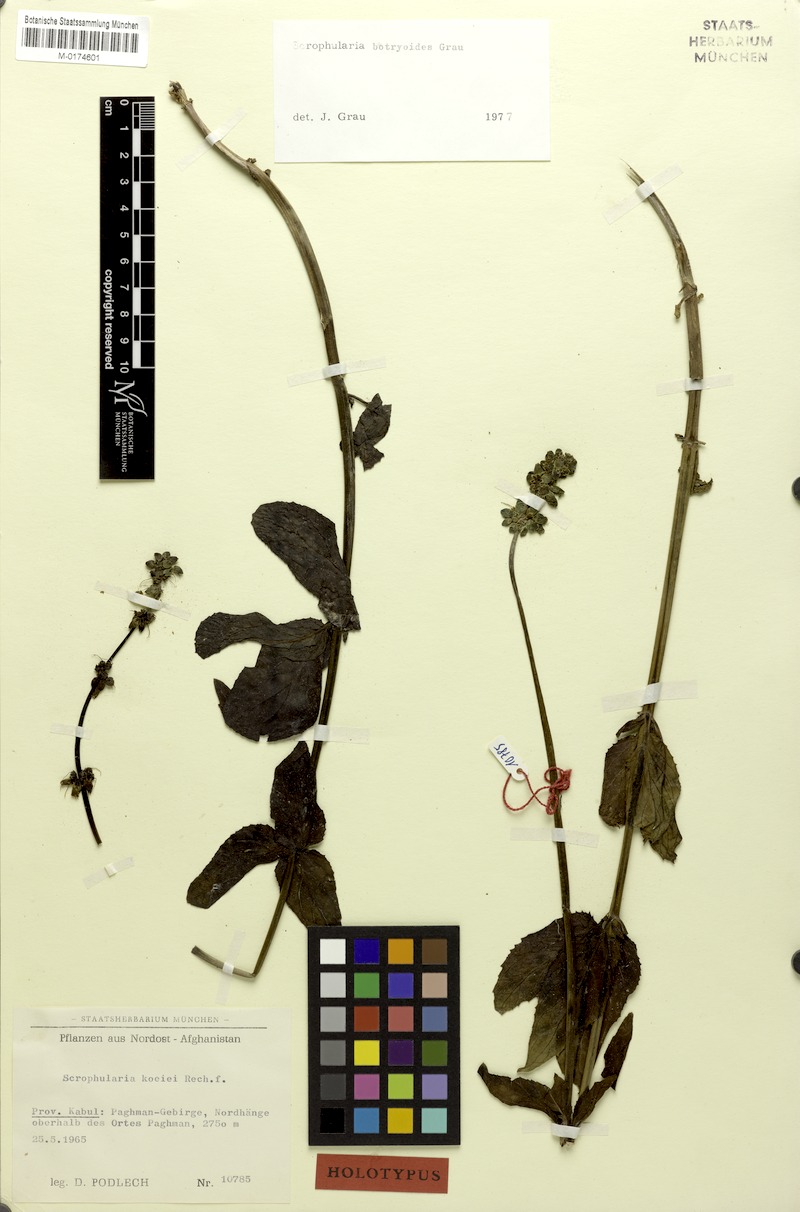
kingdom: Plantae
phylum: Tracheophyta
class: Magnoliopsida
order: Lamiales
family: Scrophulariaceae
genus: Scrophularia
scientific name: Scrophularia botryoides
